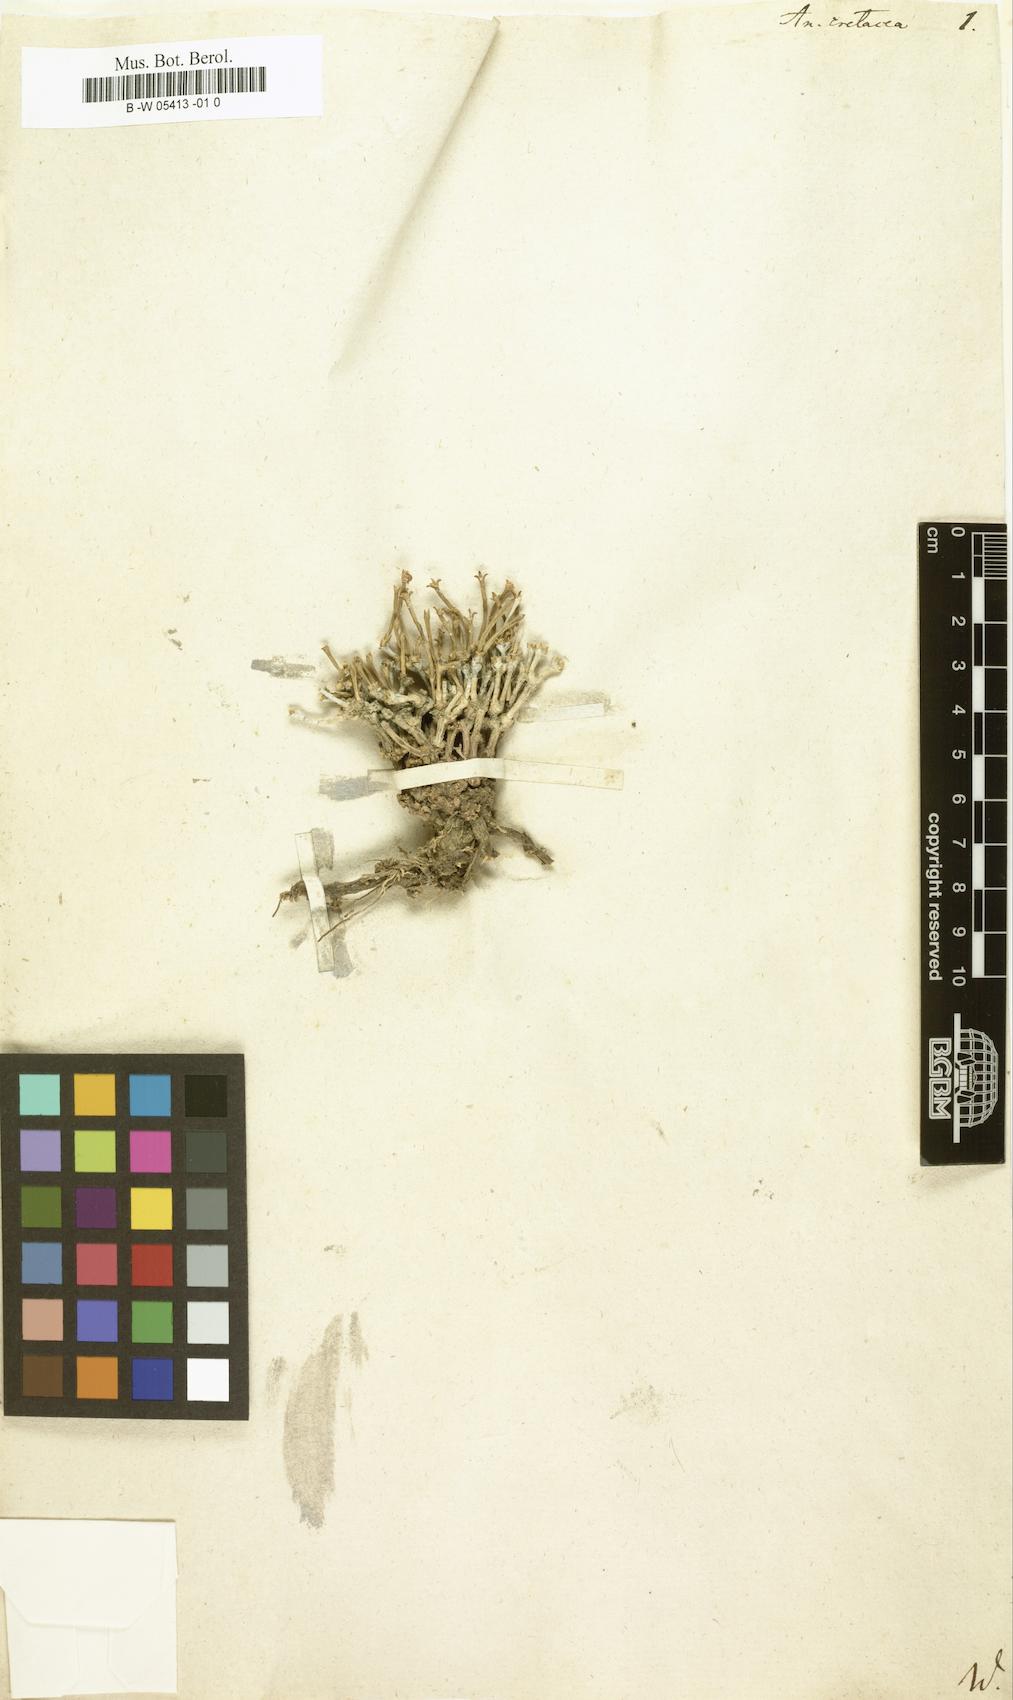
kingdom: Plantae
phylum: Tracheophyta
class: Magnoliopsida
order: Caryophyllales
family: Amaranthaceae
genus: Anabasis
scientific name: Anabasis brachiata
